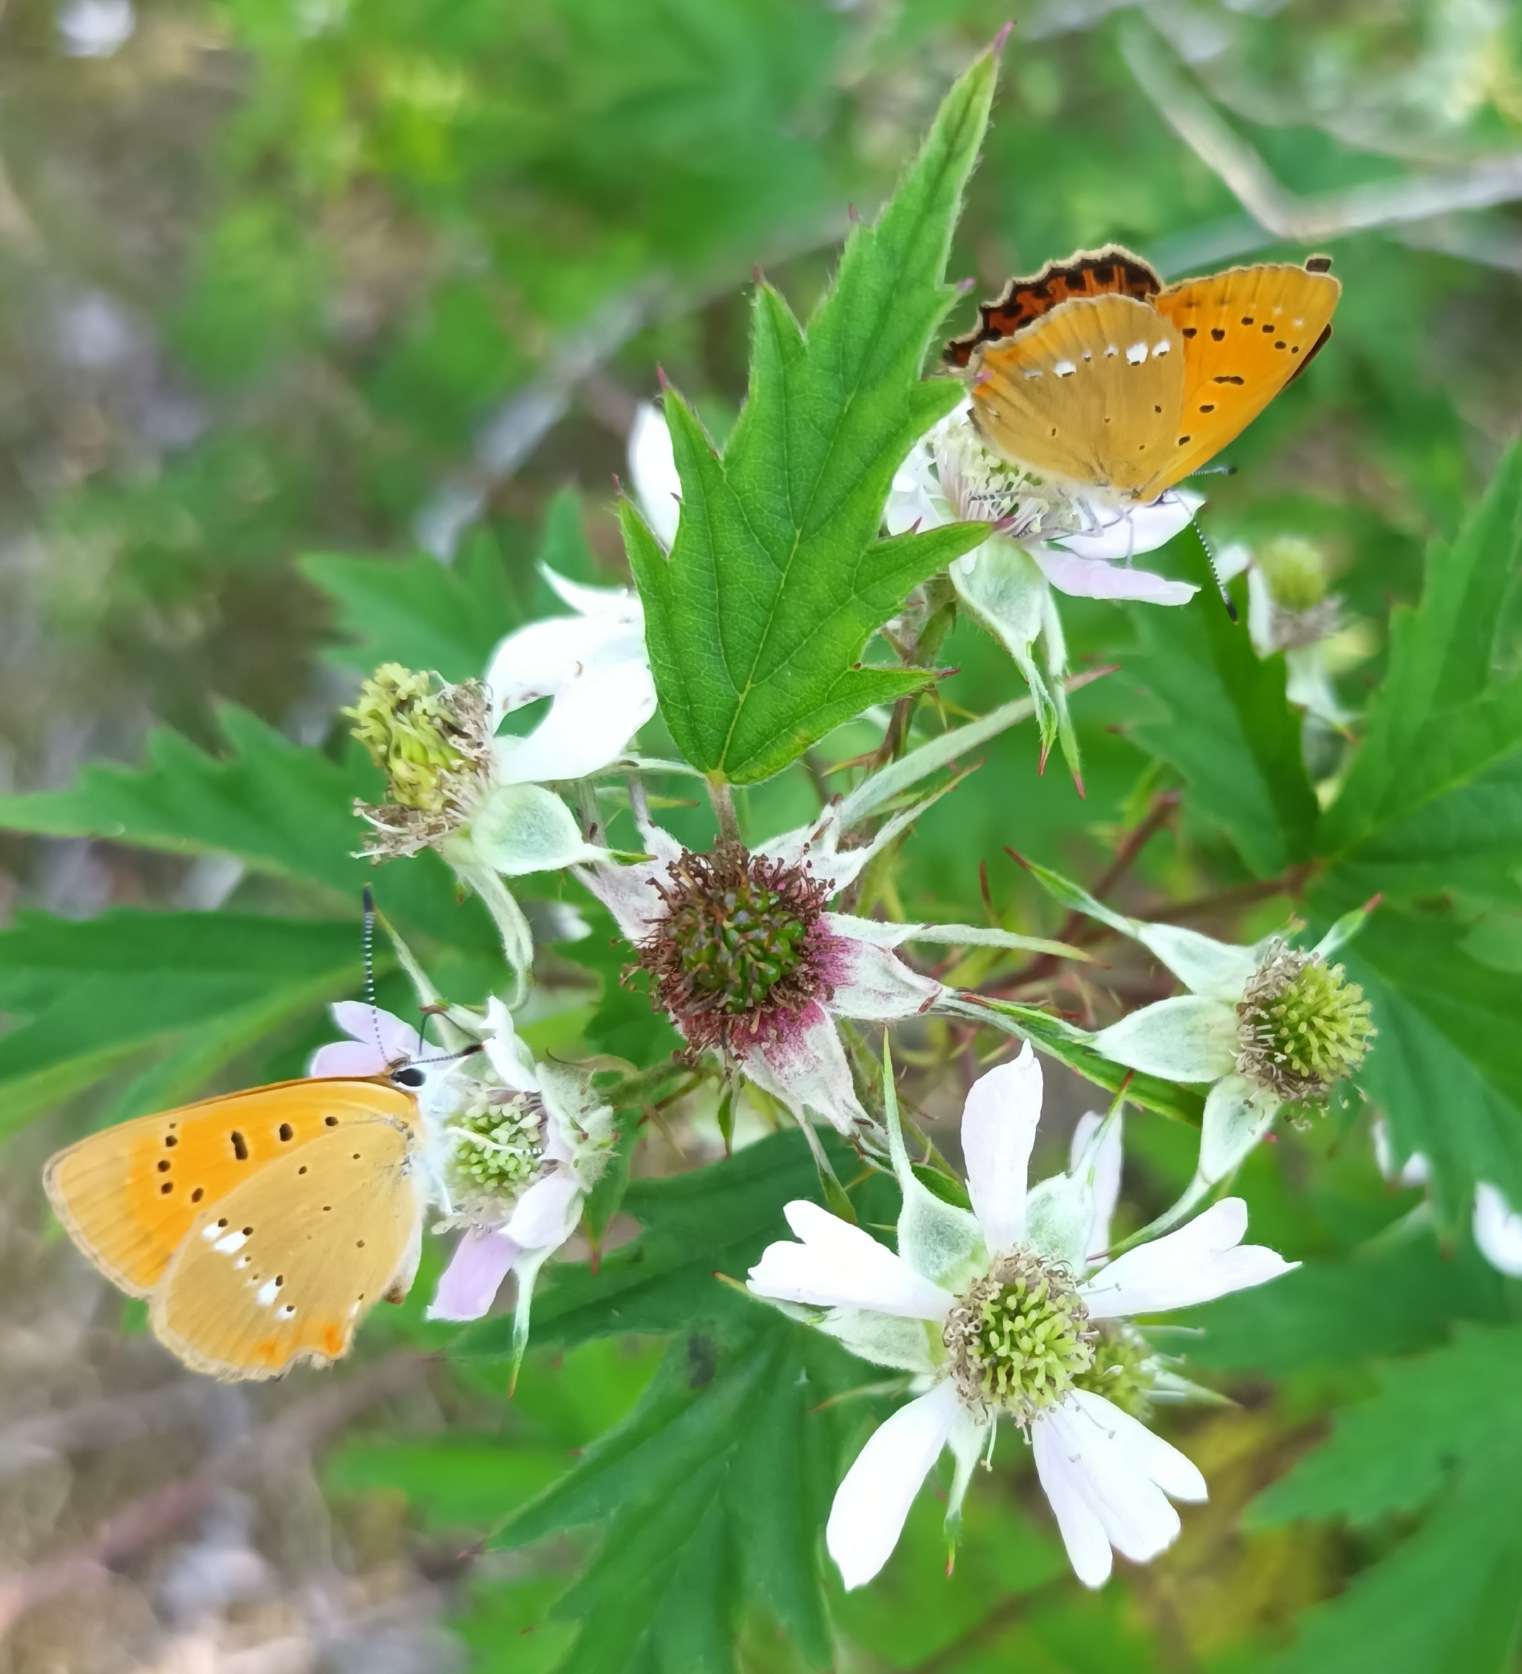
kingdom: Animalia
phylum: Arthropoda
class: Insecta
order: Lepidoptera
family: Lycaenidae
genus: Lycaena
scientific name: Lycaena virgaureae
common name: Dukatsommerfugl
